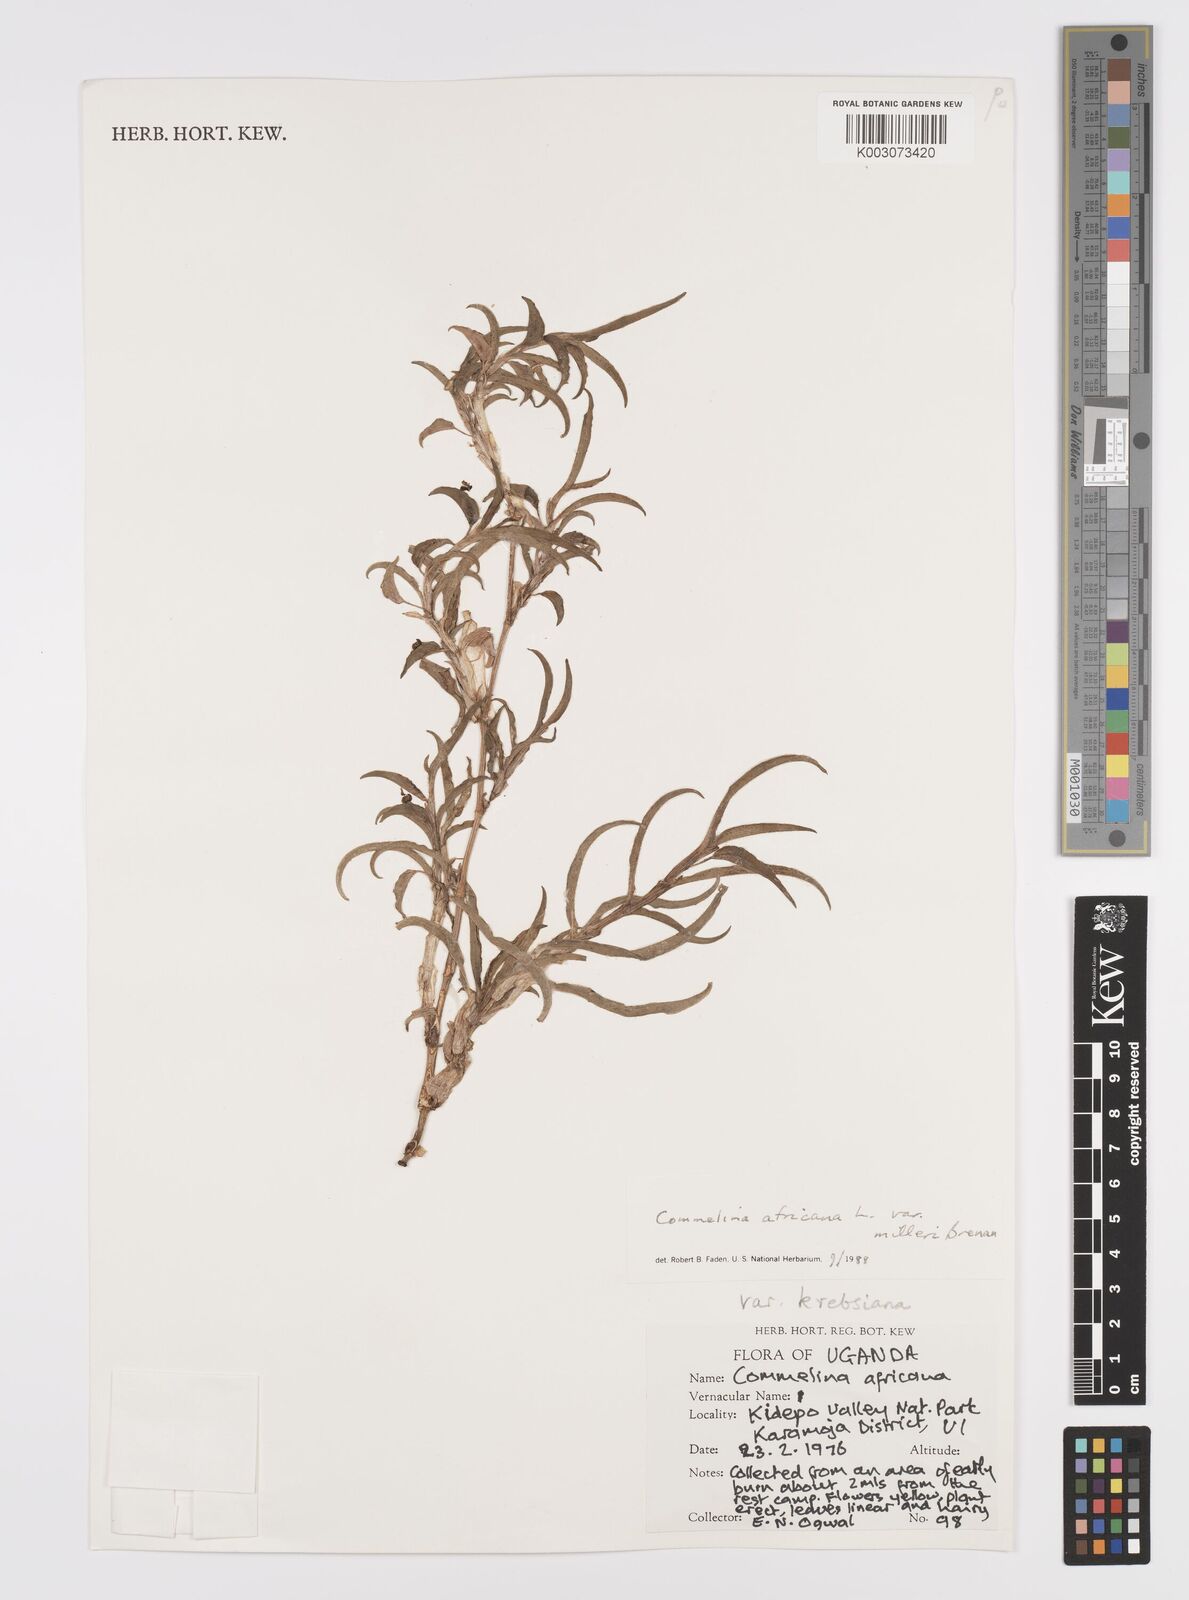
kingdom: Plantae
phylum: Tracheophyta
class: Liliopsida
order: Commelinales
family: Commelinaceae
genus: Commelina
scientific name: Commelina africana
